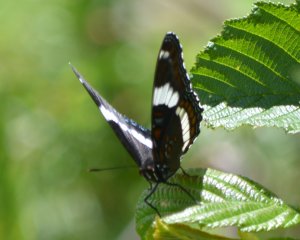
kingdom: Animalia
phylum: Arthropoda
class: Insecta
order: Lepidoptera
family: Nymphalidae
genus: Limenitis
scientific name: Limenitis arthemis
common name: Red-spotted Admiral
